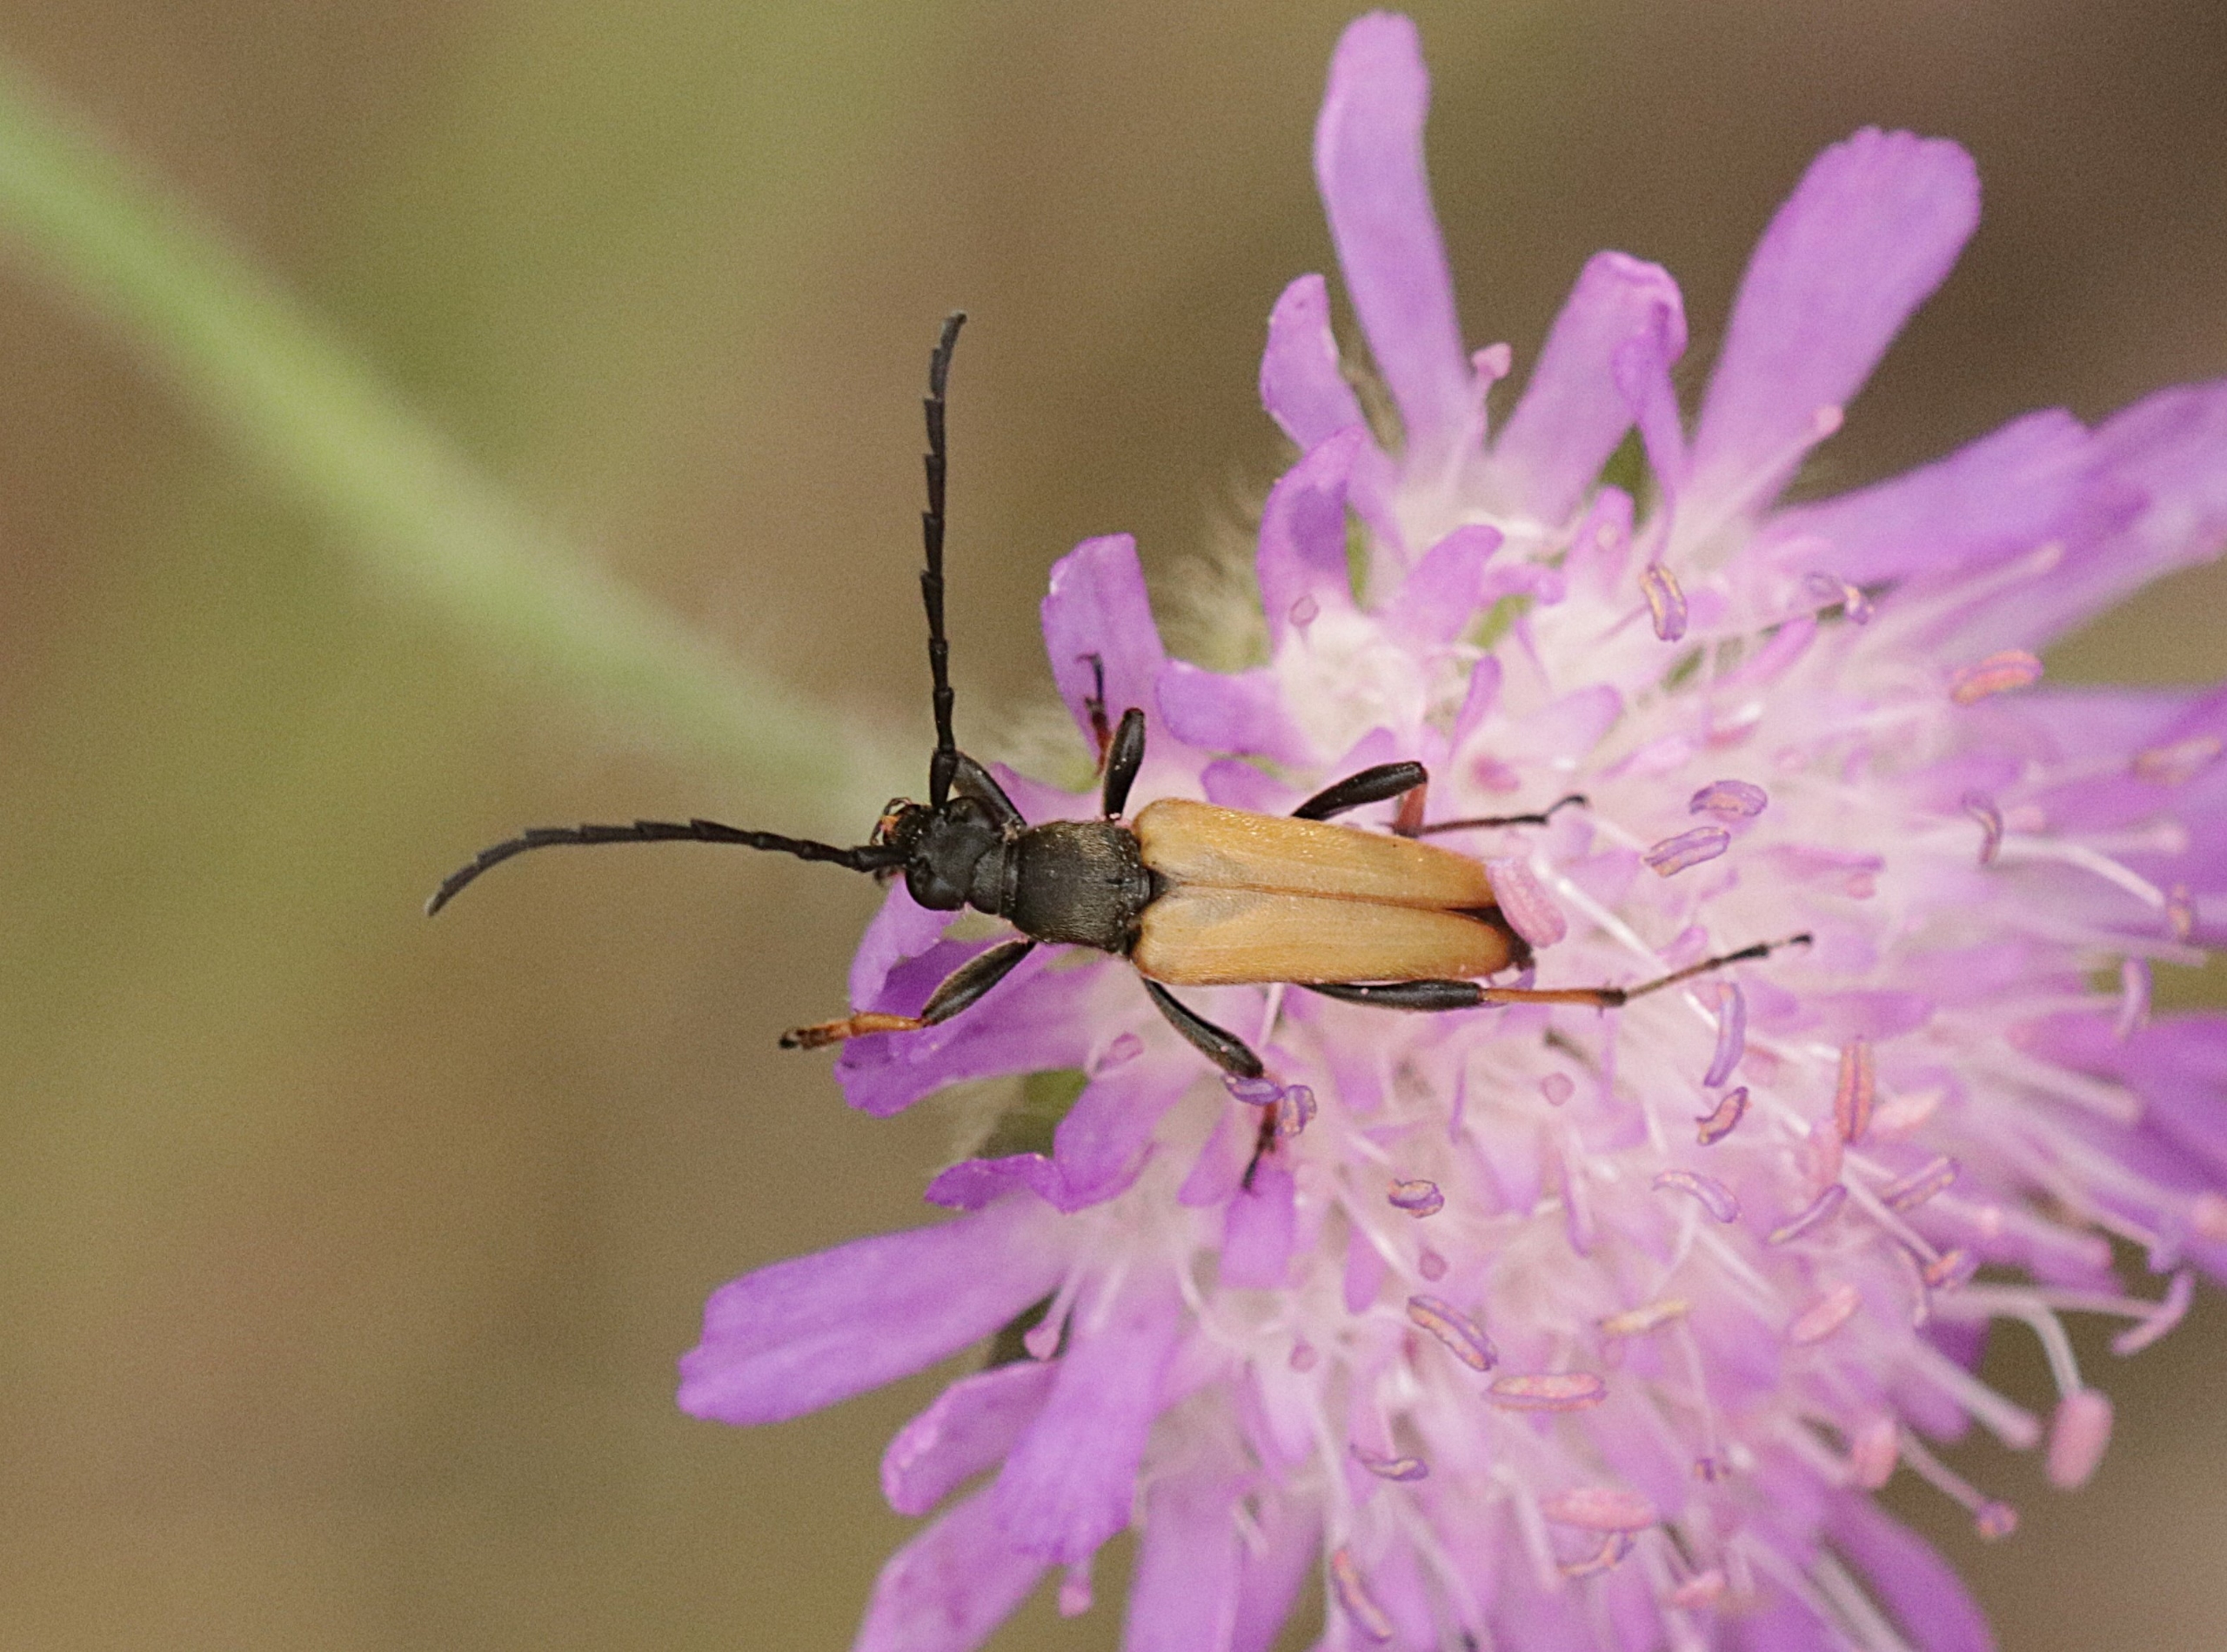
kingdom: Animalia
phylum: Arthropoda
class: Insecta
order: Coleoptera
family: Cerambycidae
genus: Stictoleptura
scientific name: Stictoleptura rubra
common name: Rød blomsterbuk
